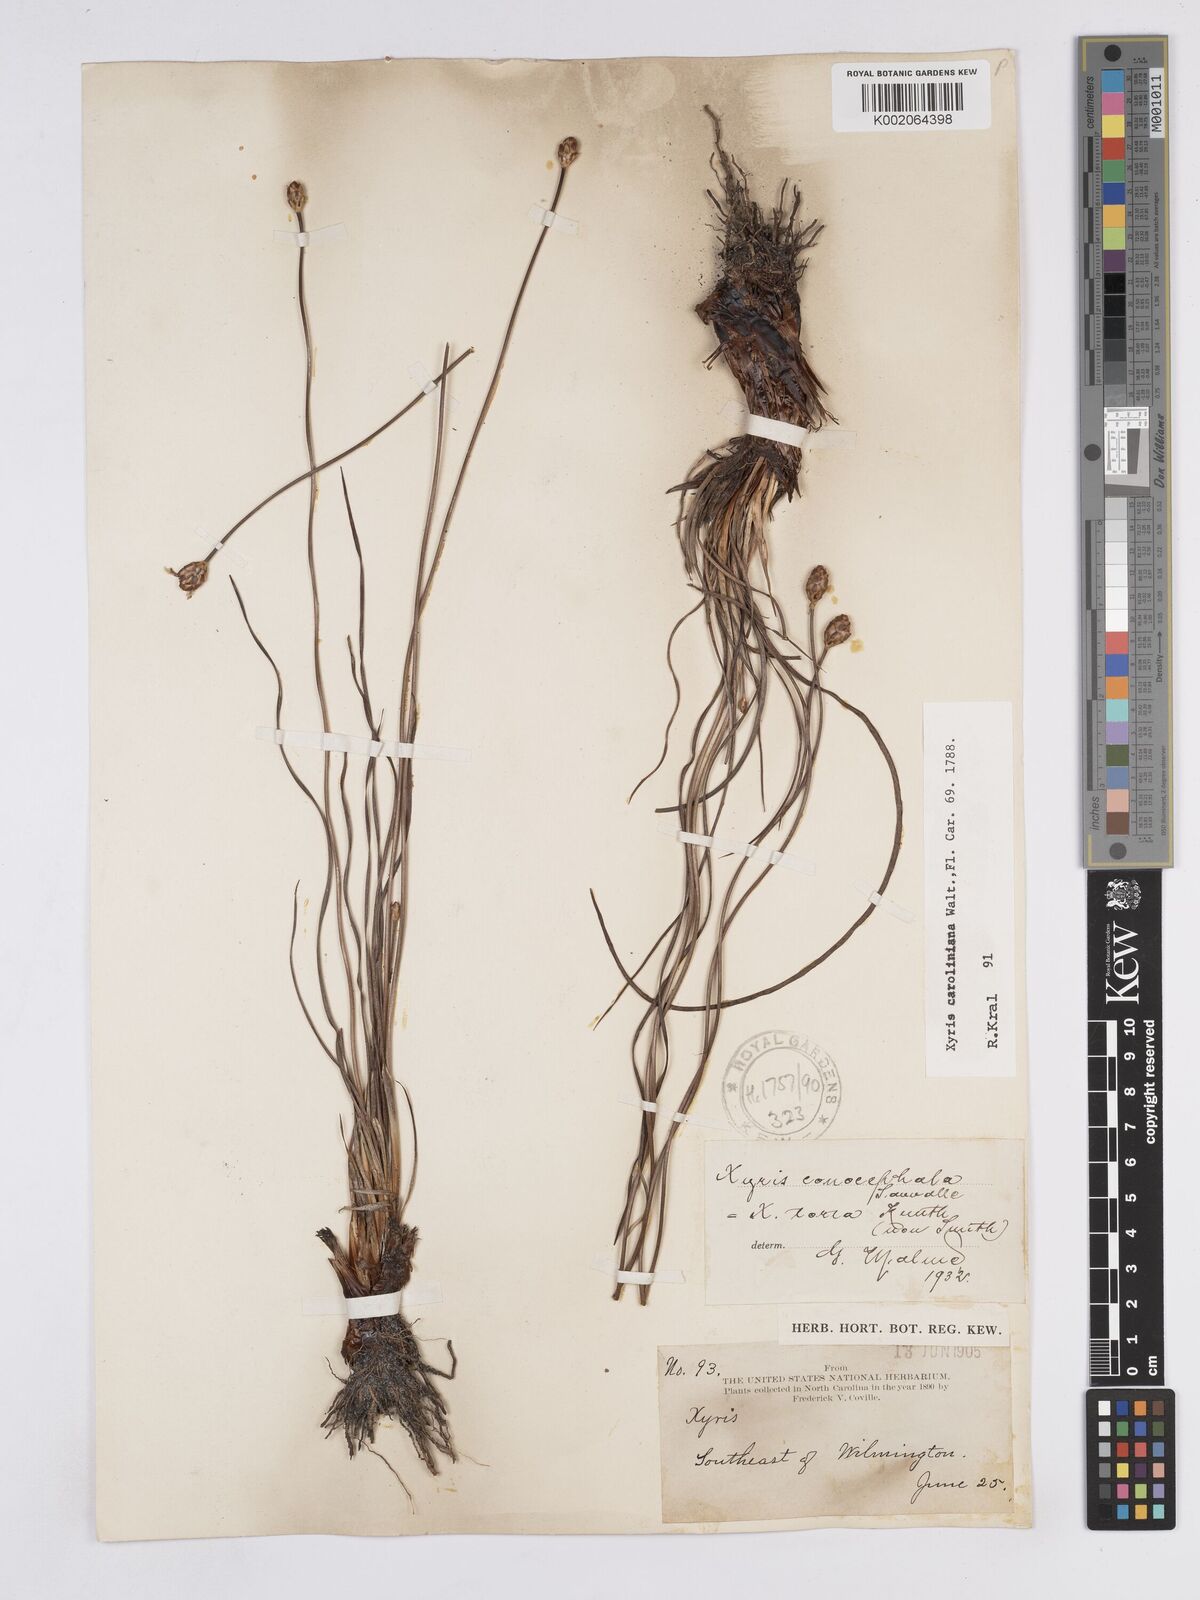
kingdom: Plantae
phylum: Tracheophyta
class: Liliopsida
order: Poales
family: Xyridaceae
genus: Xyris
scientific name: Xyris caroliniana
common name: Carolina yellow-eyed-grass
